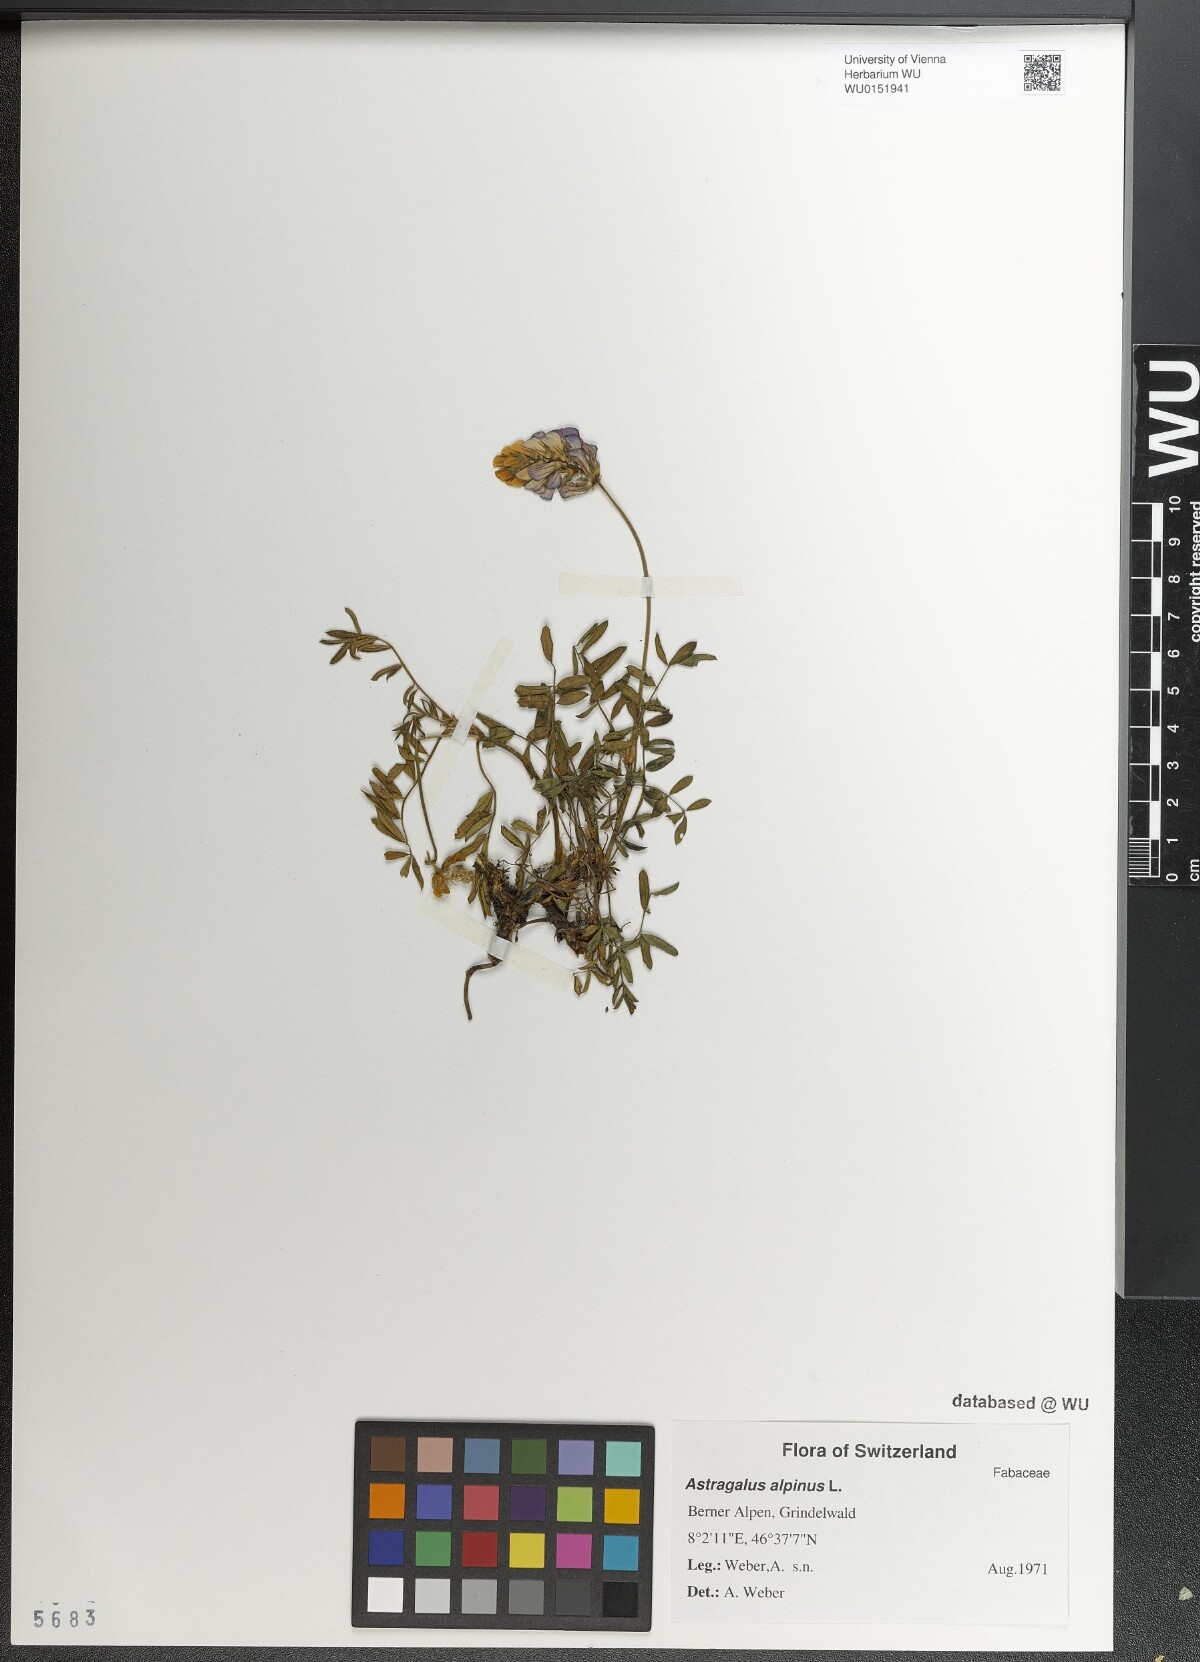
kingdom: Plantae
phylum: Tracheophyta
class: Magnoliopsida
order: Fabales
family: Fabaceae
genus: Astragalus
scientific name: Astragalus alpinus
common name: Alpine milk-vetch
